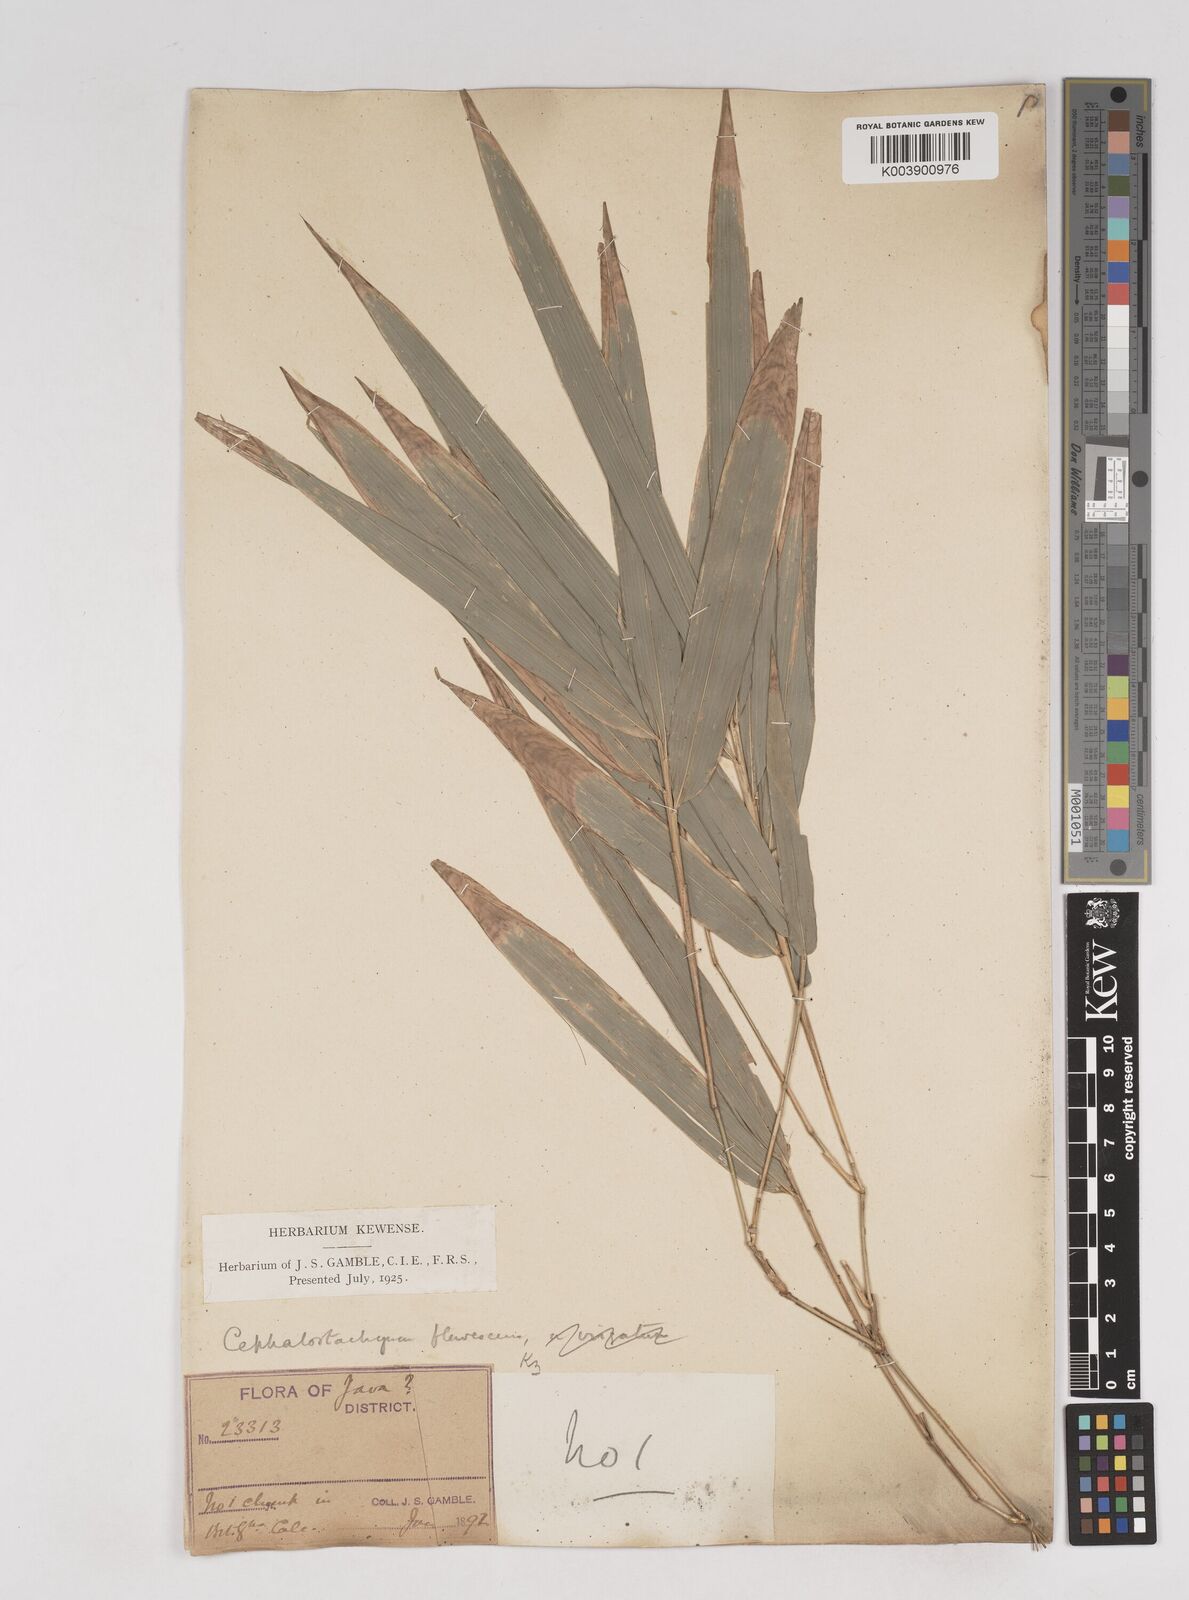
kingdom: Plantae
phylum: Tracheophyta
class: Liliopsida
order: Poales
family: Poaceae
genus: Cephalostachyum
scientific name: Cephalostachyum flavescens
